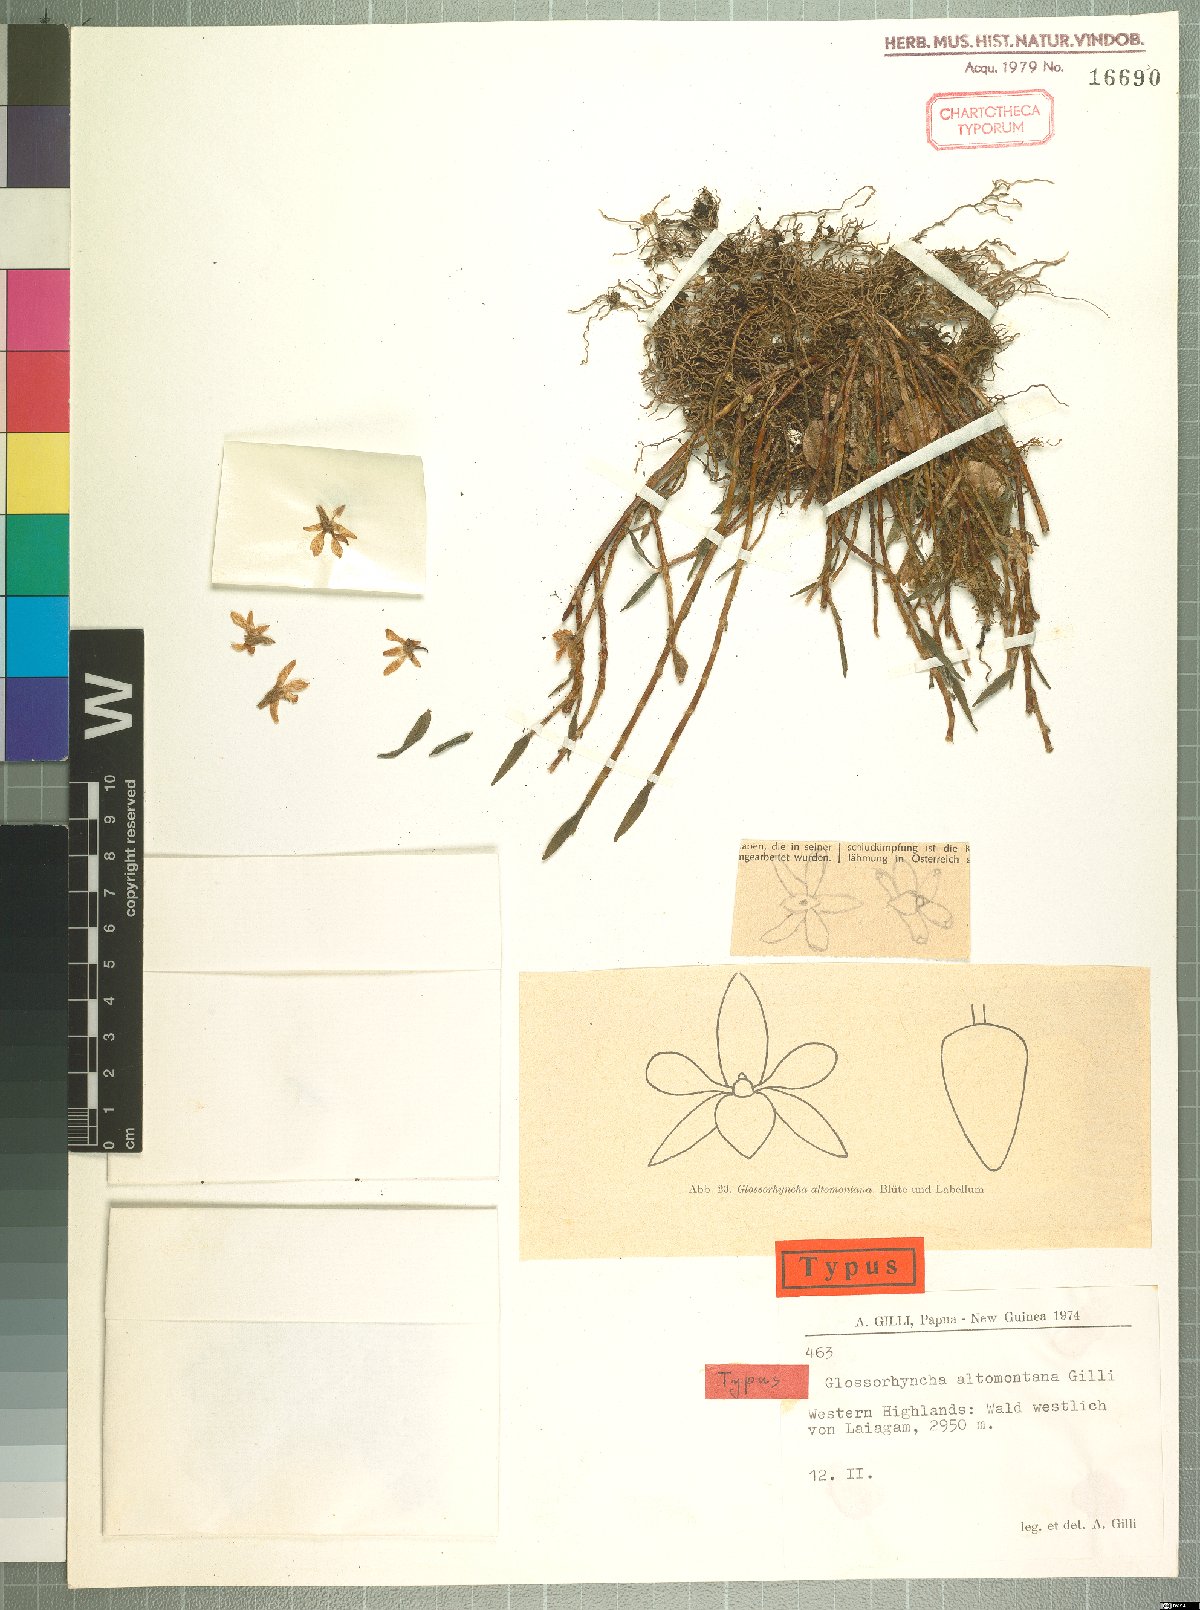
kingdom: Plantae
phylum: Tracheophyta
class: Liliopsida
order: Asparagales
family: Orchidaceae
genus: Glomera
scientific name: Glomera altomontana
